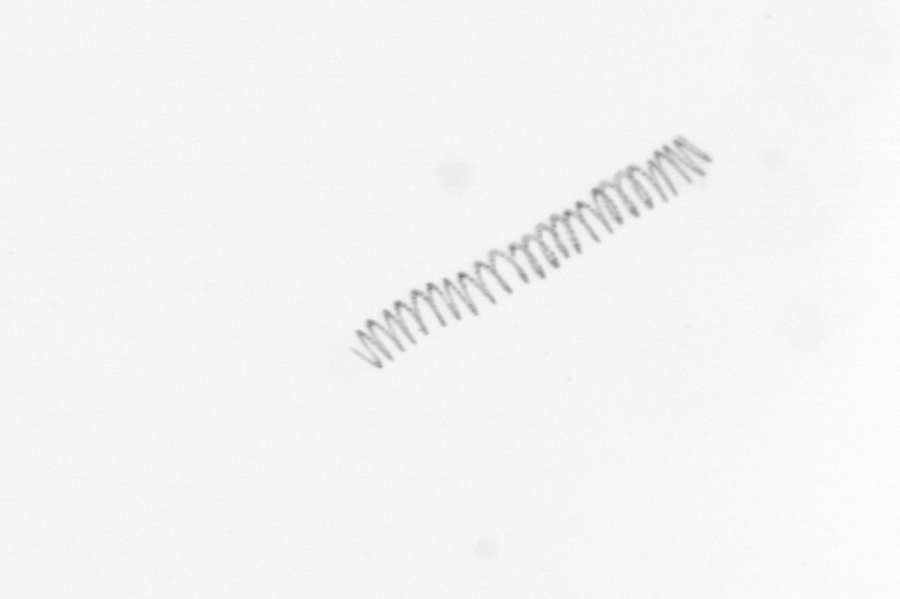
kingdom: Chromista
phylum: Ochrophyta
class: Bacillariophyceae
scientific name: Bacillariophyceae
